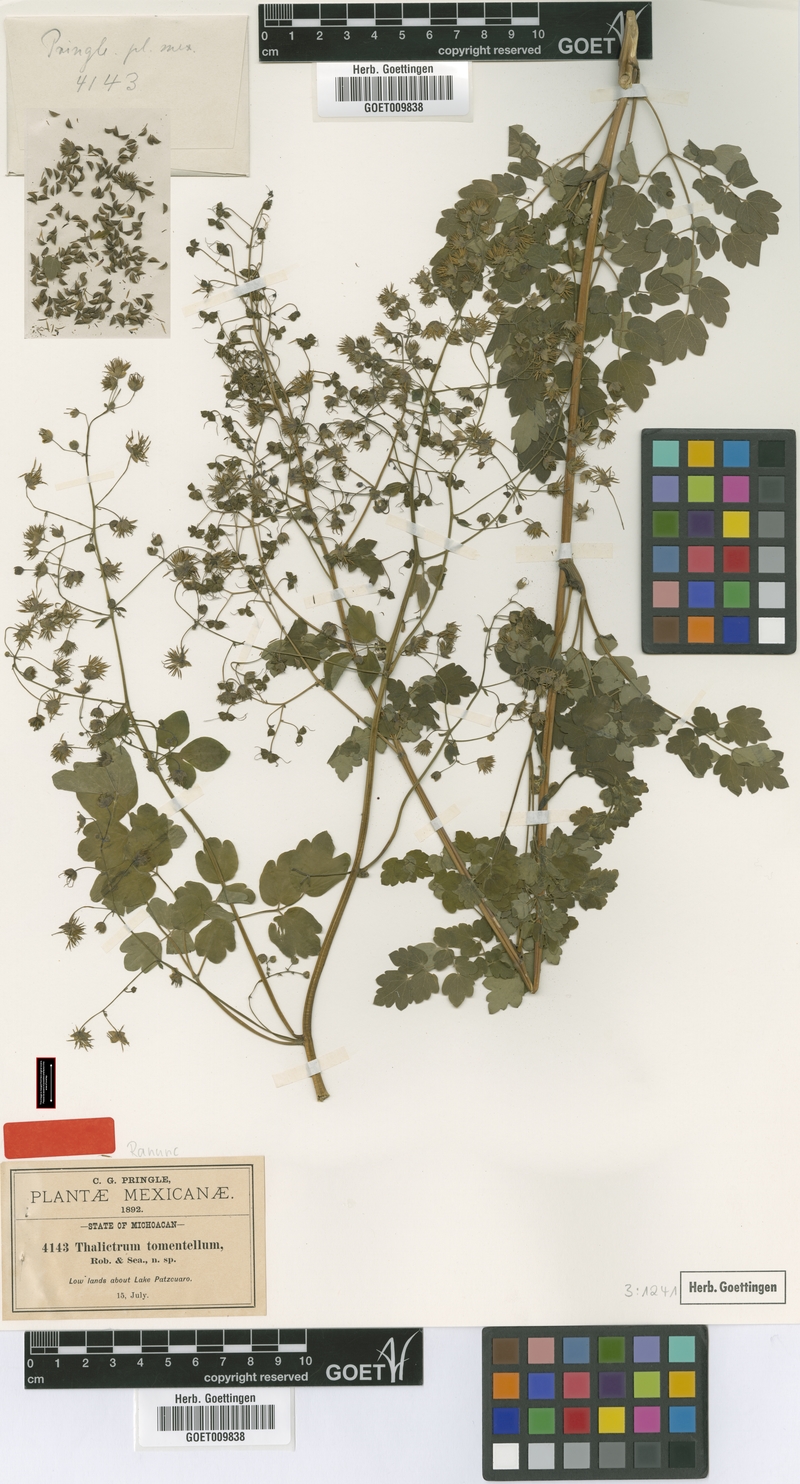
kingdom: Plantae
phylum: Tracheophyta
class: Magnoliopsida
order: Ranunculales
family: Ranunculaceae
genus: Thalictrum
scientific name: Thalictrum pubigerum
